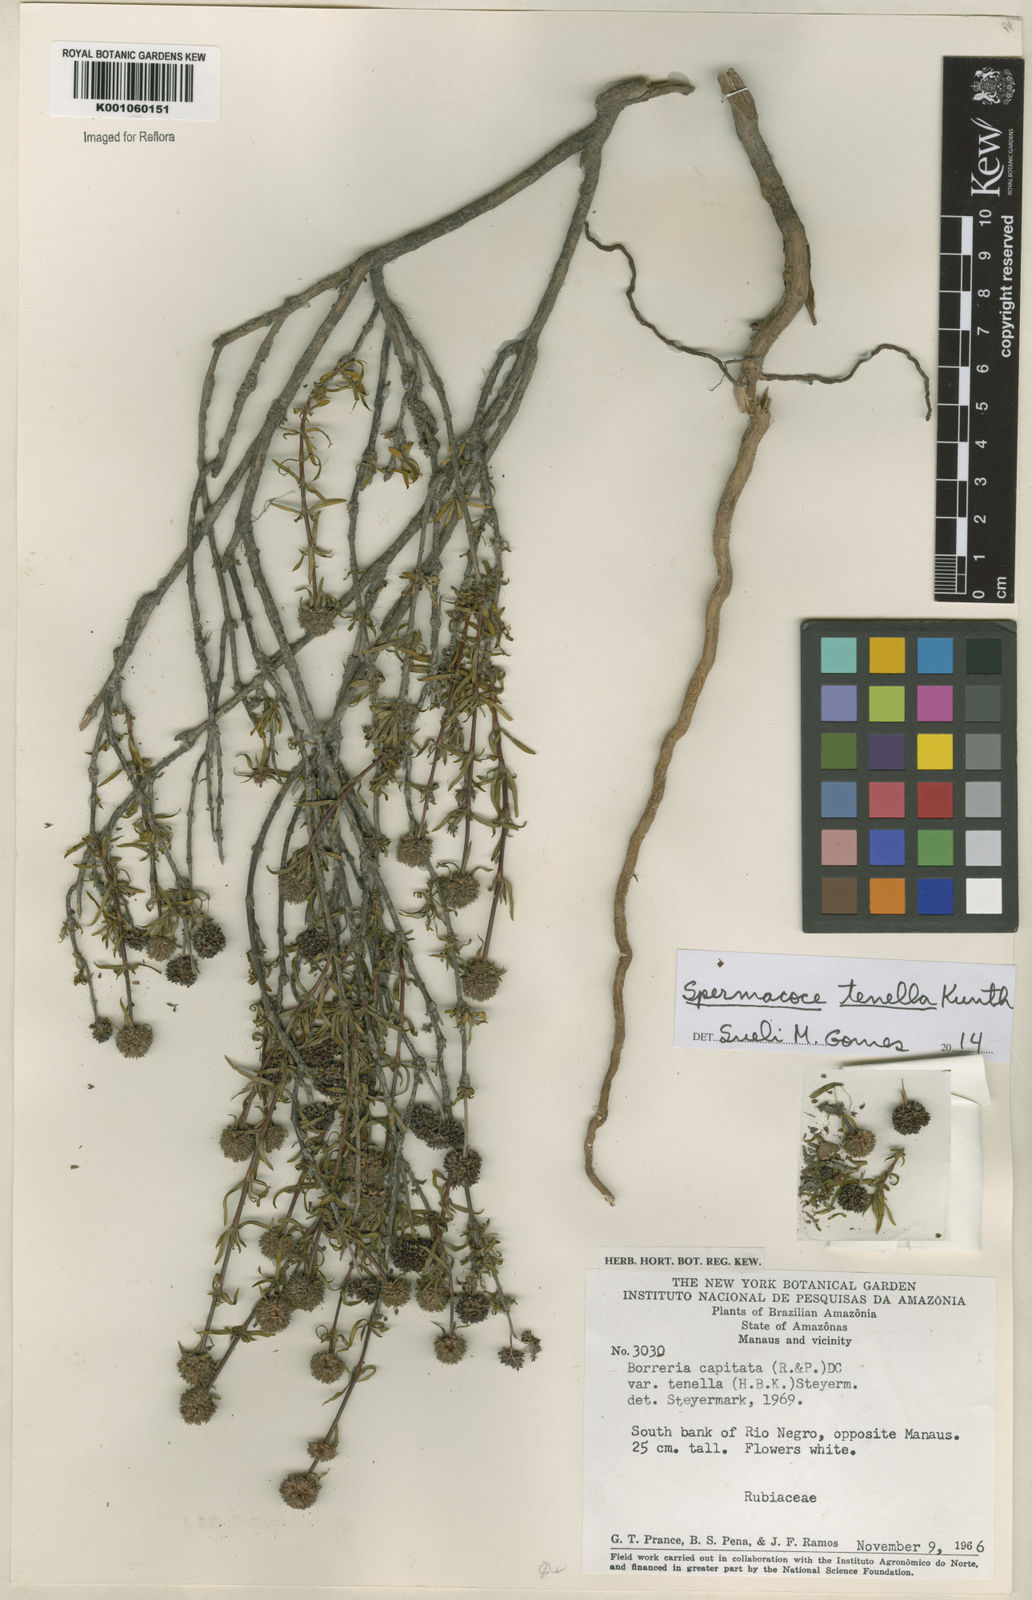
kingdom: Plantae
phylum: Tracheophyta
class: Magnoliopsida
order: Gentianales
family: Rubiaceae
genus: Spermacoce
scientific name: Spermacoce orinocensis
